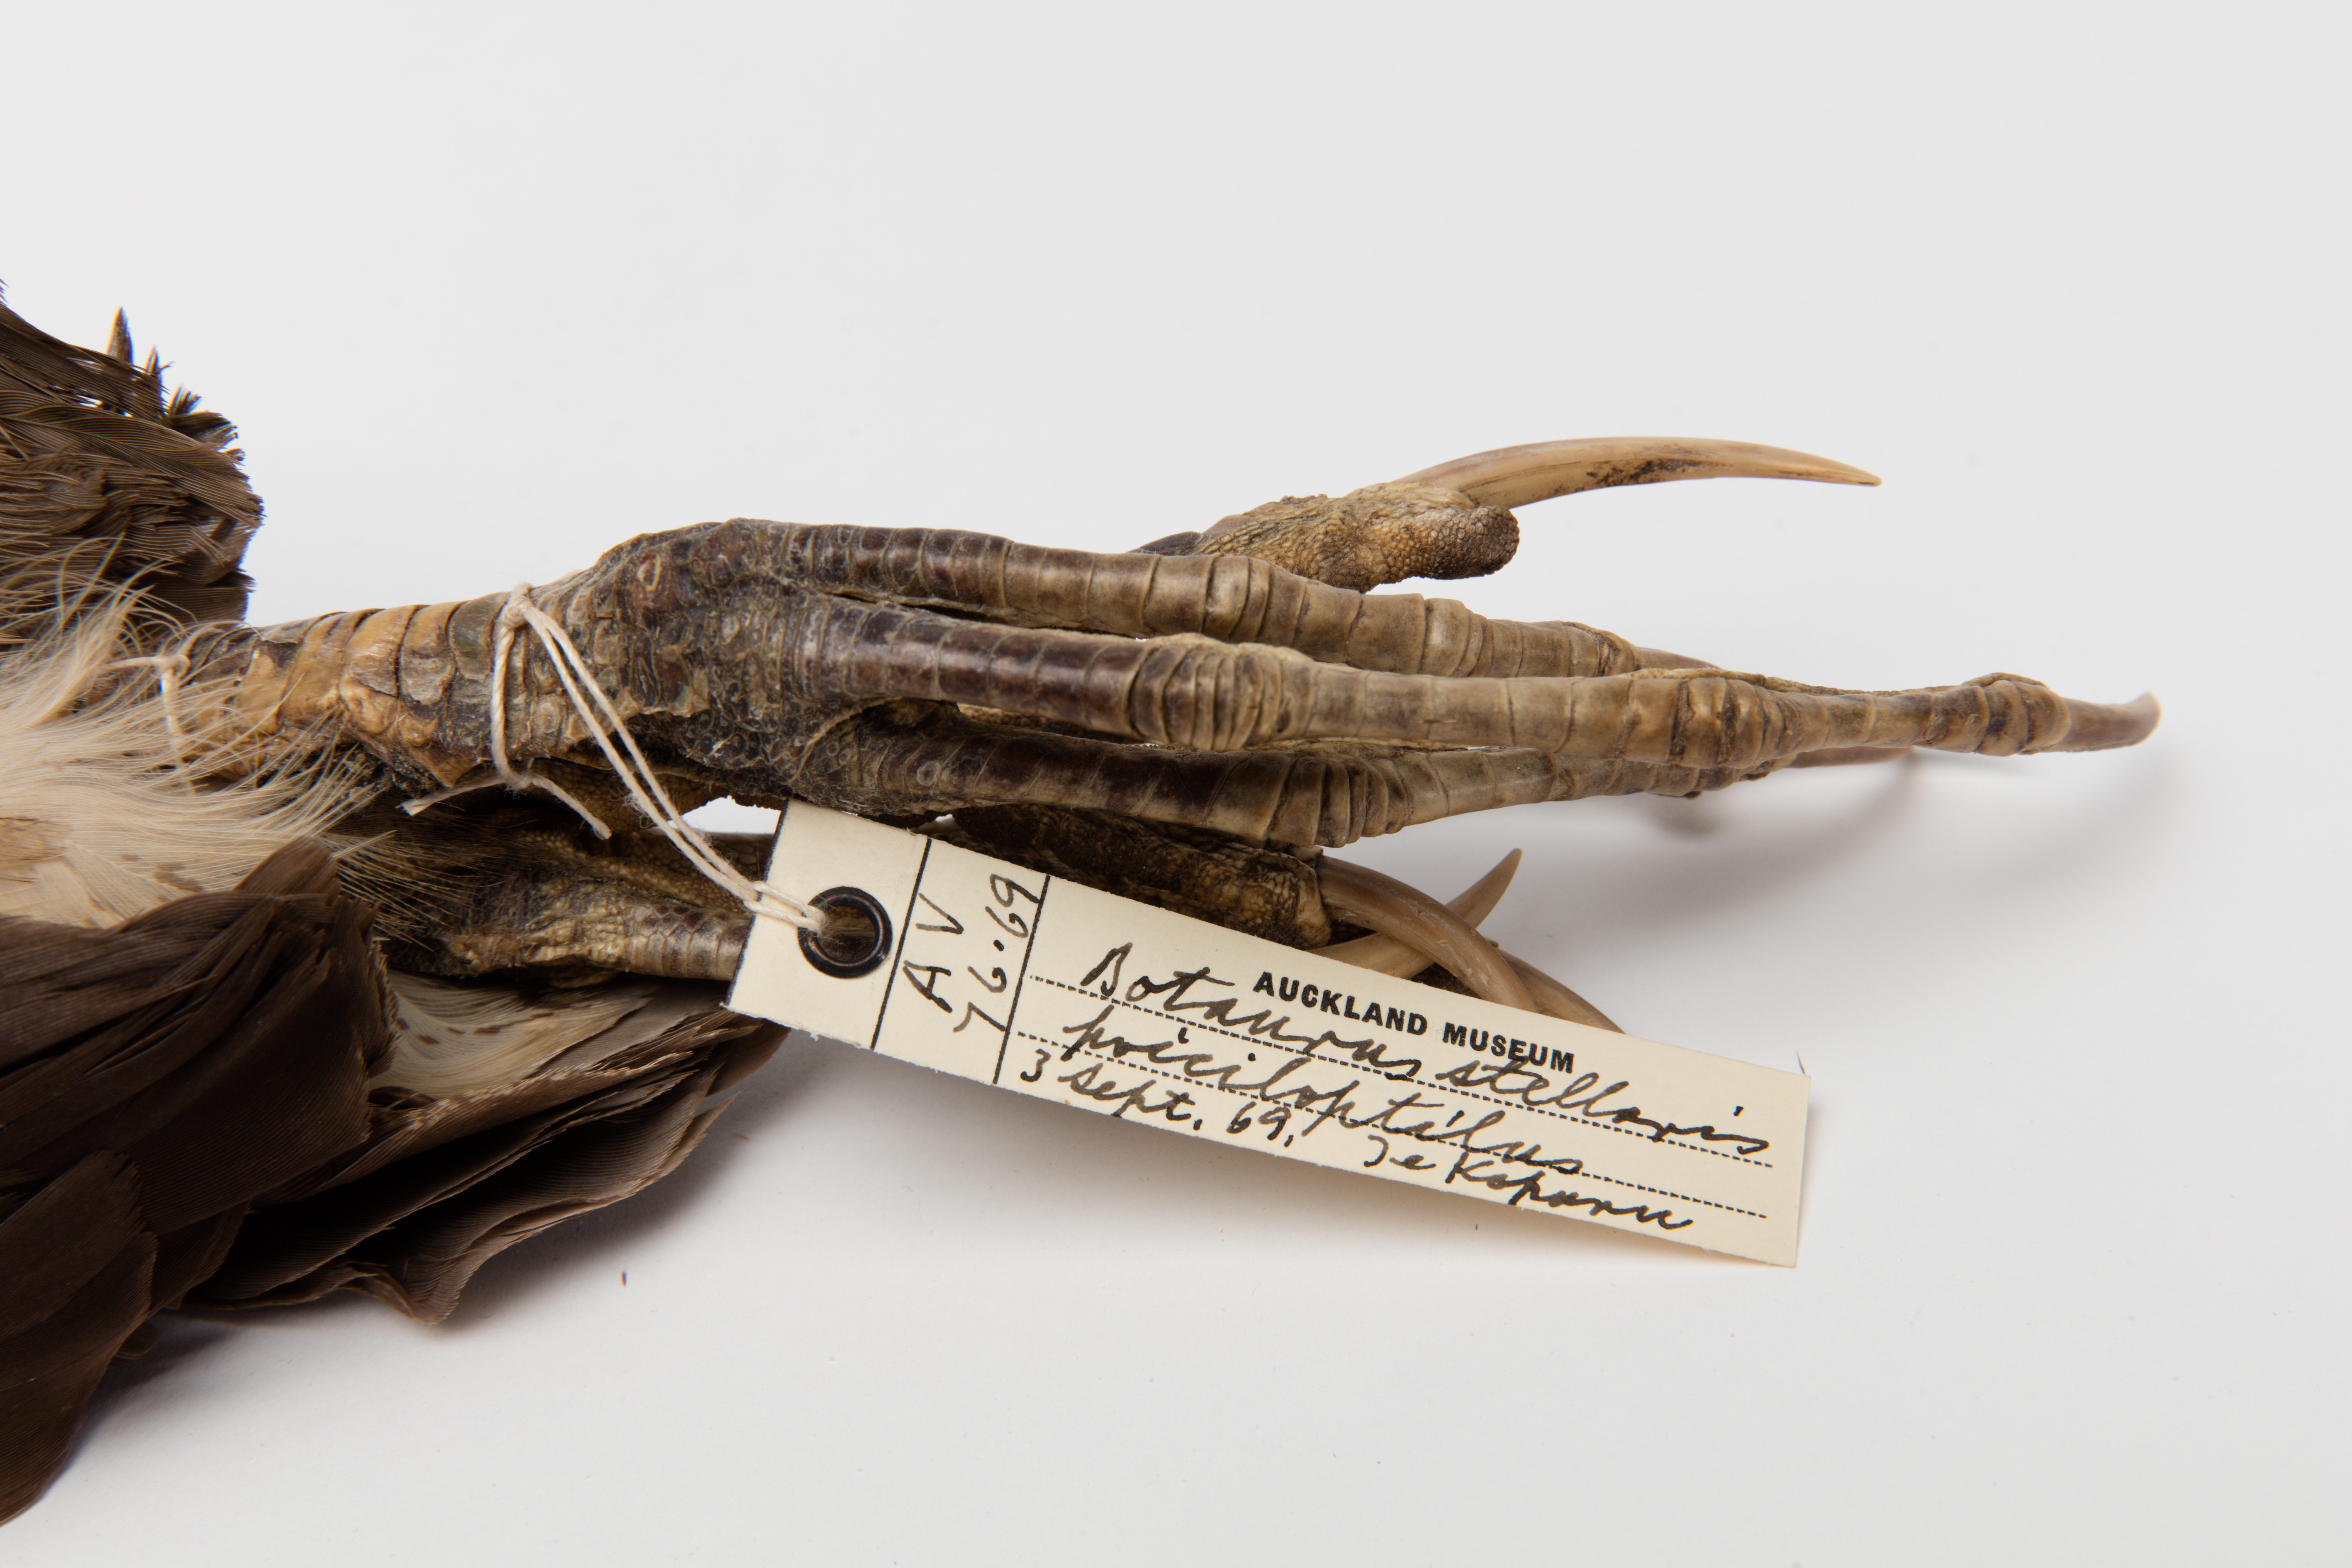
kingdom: Animalia
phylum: Chordata
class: Aves
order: Pelecaniformes
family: Ardeidae
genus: Botaurus
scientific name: Botaurus poiciloptilus
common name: Australasian bittern
